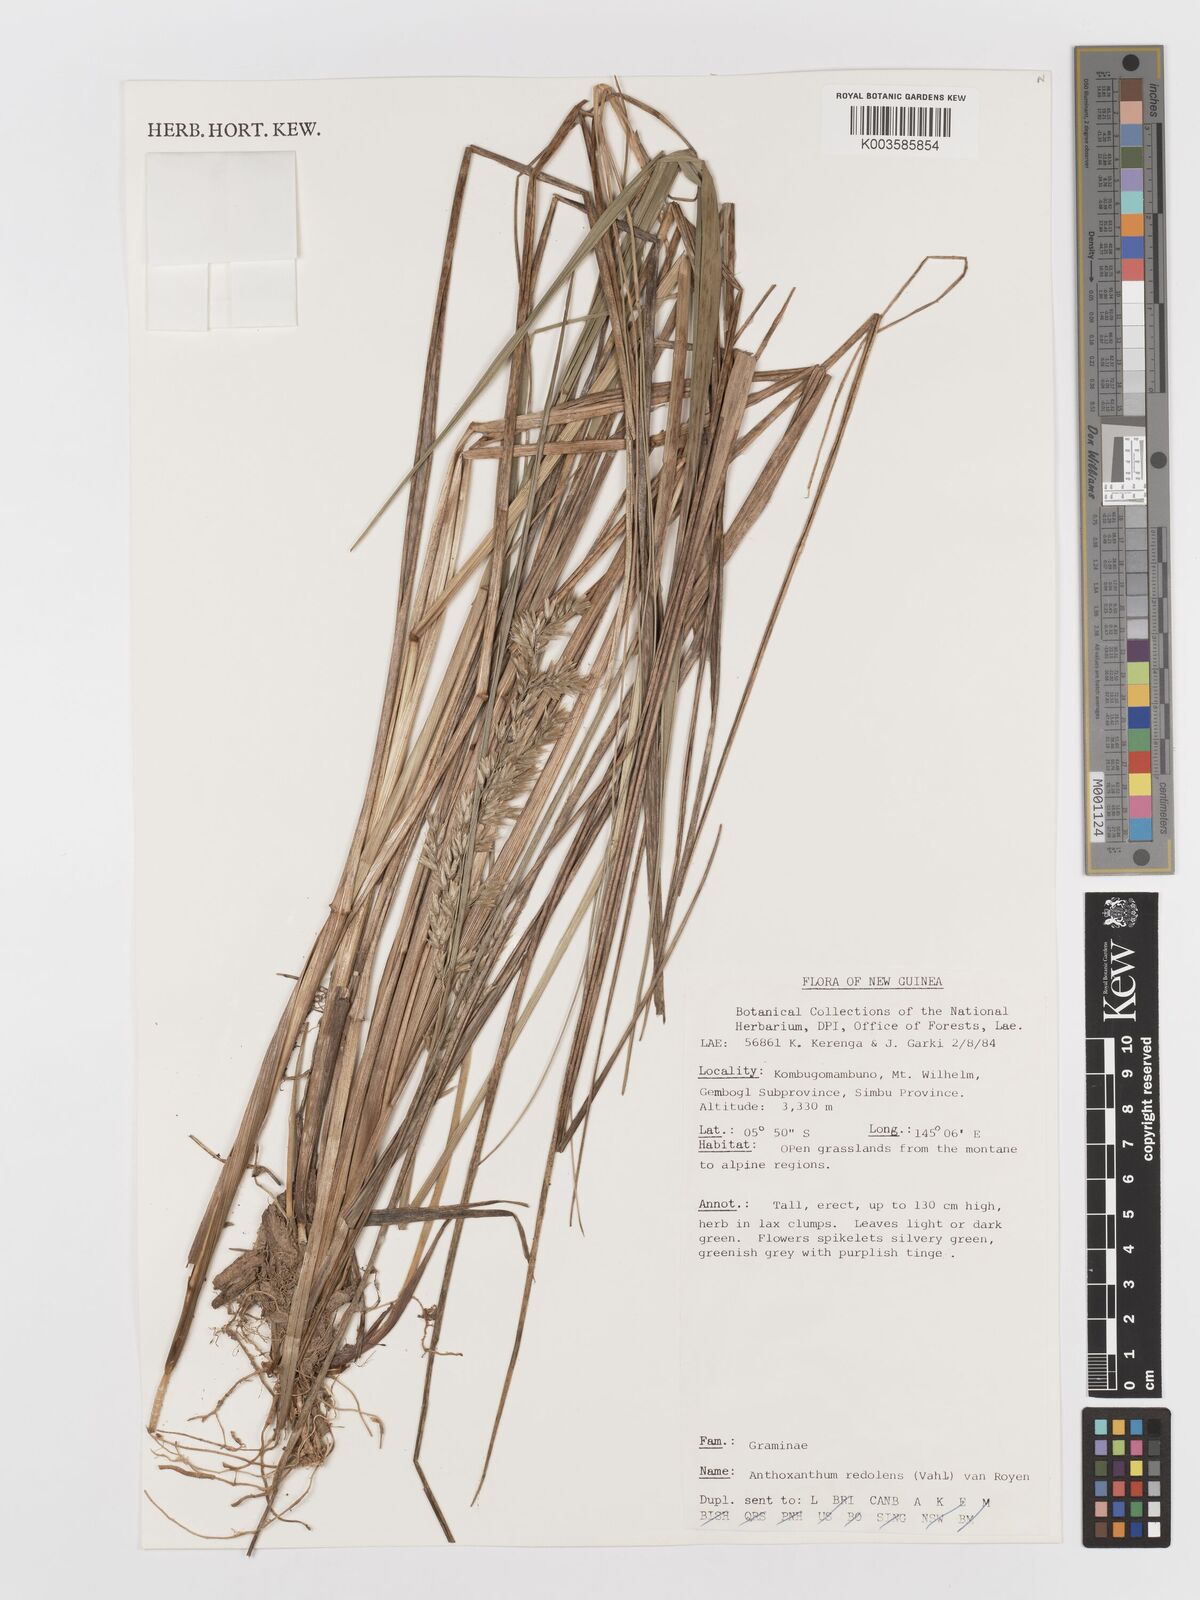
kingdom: Plantae
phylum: Tracheophyta
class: Liliopsida
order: Poales
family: Poaceae
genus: Anthoxanthum
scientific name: Anthoxanthum redolens
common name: Sweet holy grass
